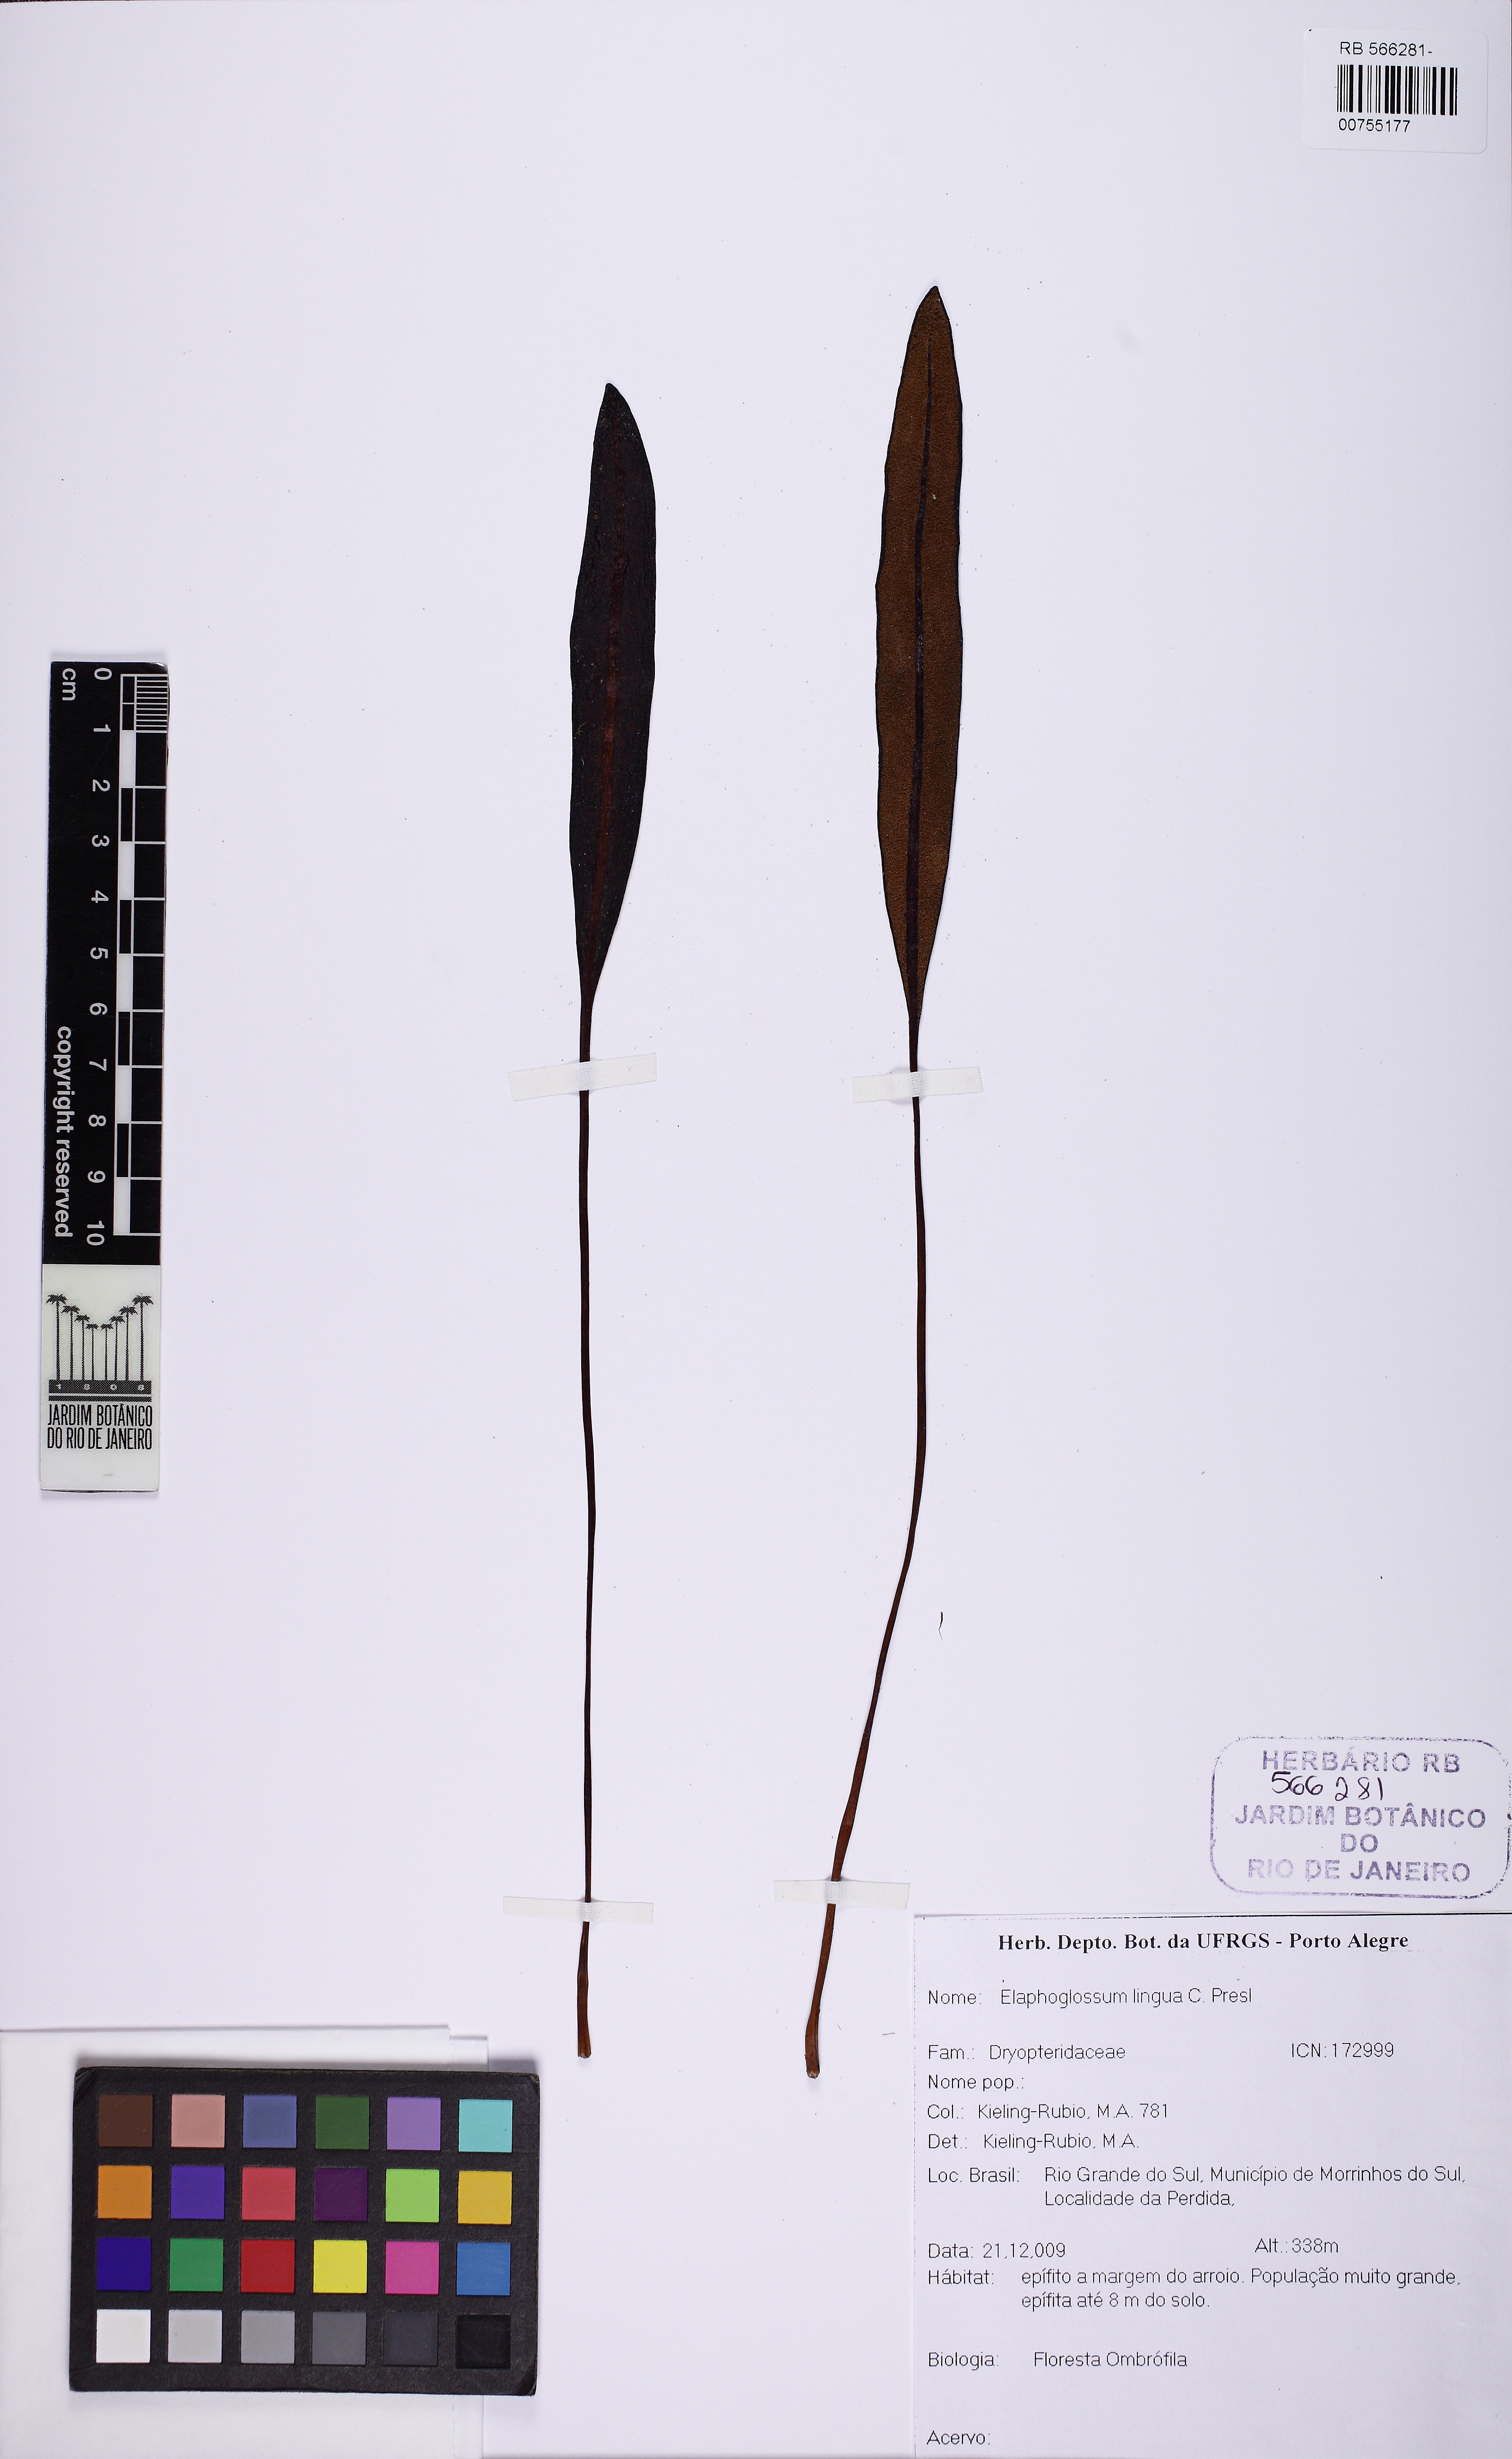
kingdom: Plantae
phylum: Tracheophyta
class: Polypodiopsida
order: Polypodiales
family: Dryopteridaceae
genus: Elaphoglossum
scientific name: Elaphoglossum lingua
